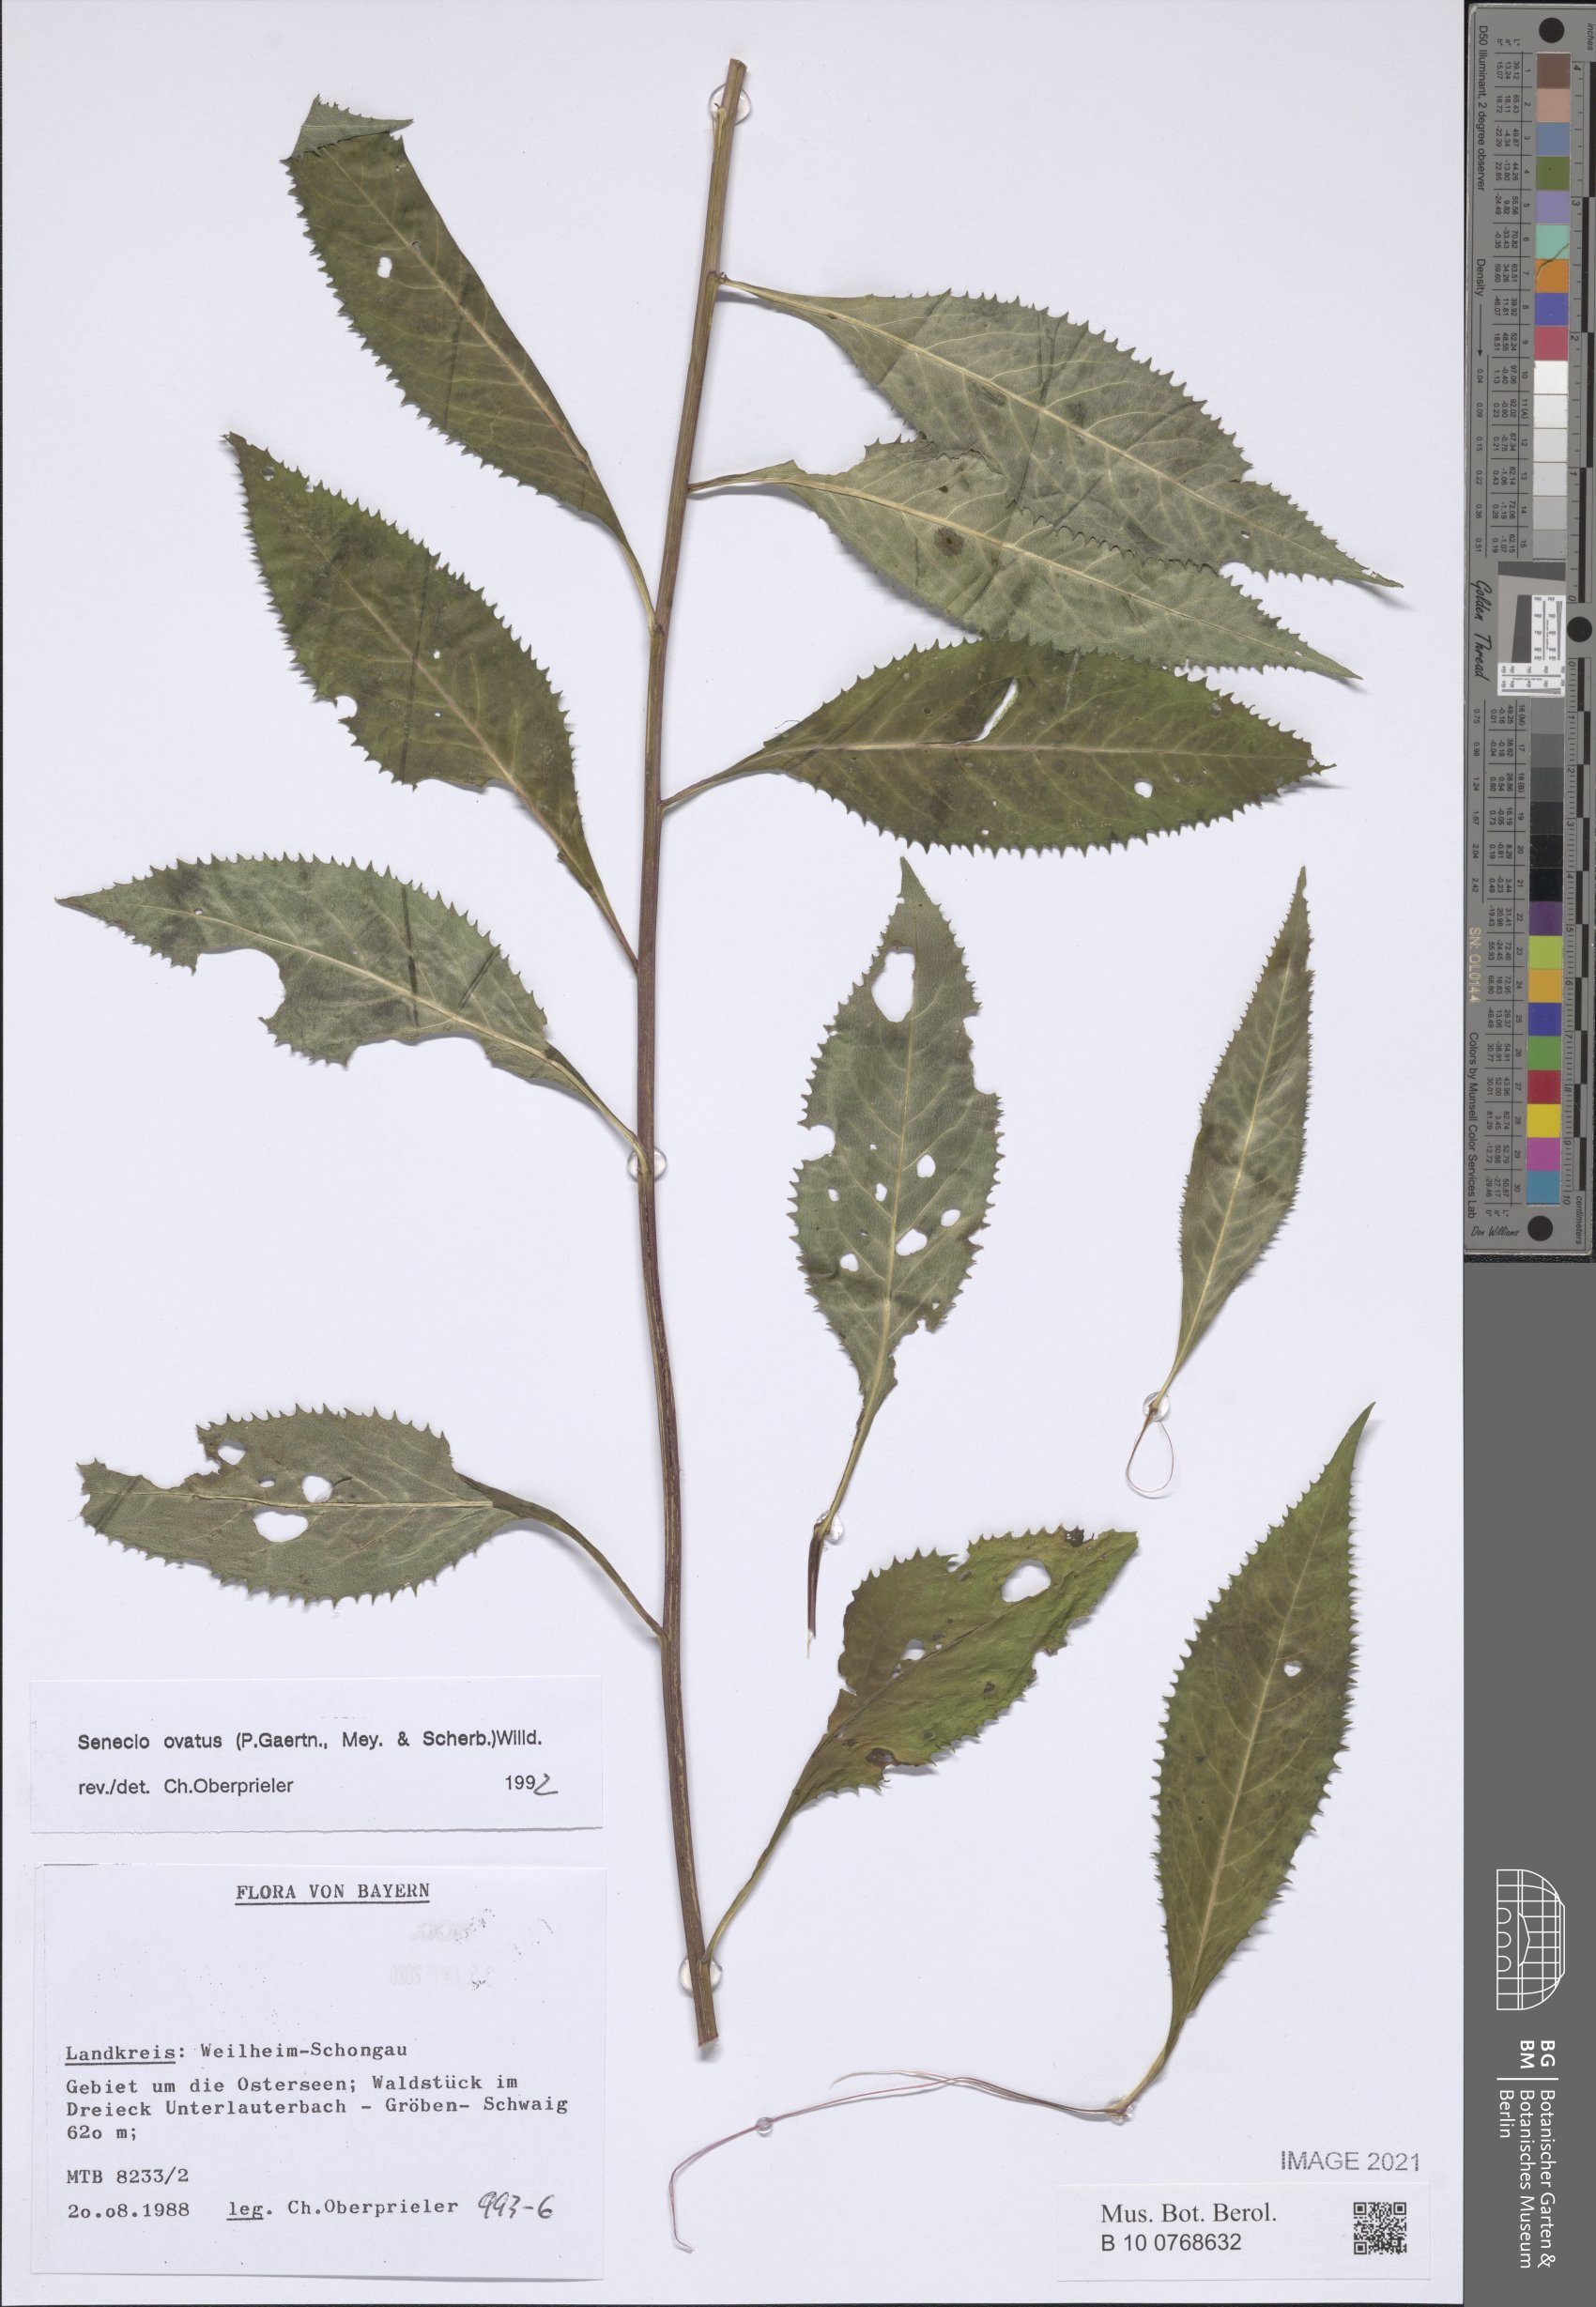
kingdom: Plantae
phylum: Tracheophyta
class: Magnoliopsida
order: Asterales
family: Asteraceae
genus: Senecio
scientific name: Senecio ovatus
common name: Wood ragwort
